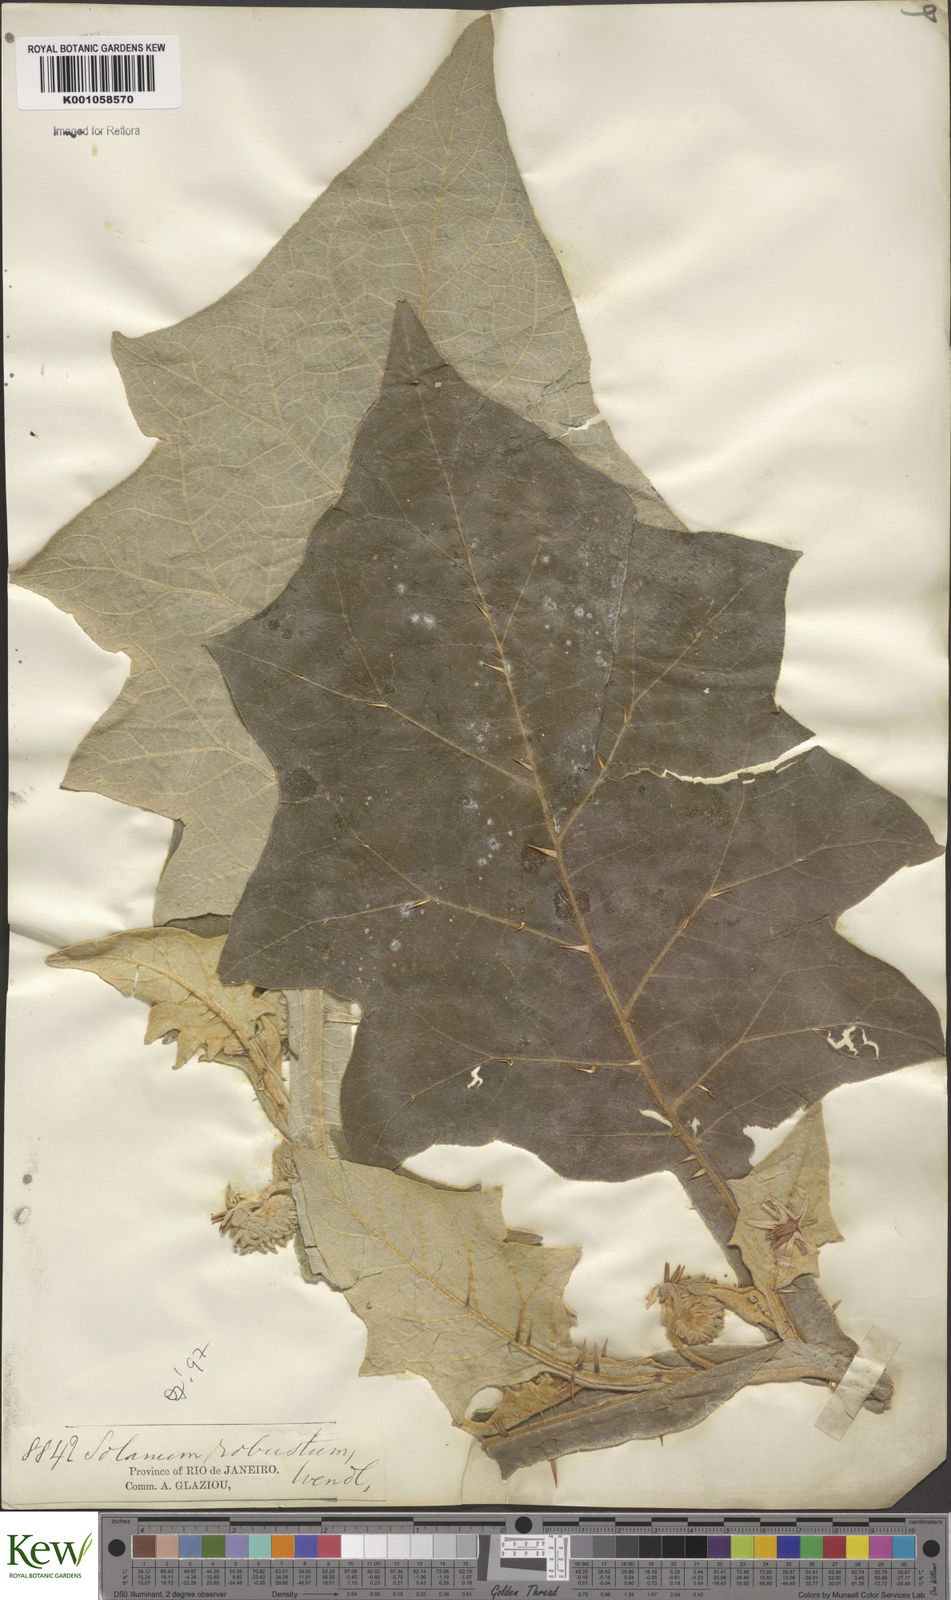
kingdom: Plantae
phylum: Tracheophyta
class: Magnoliopsida
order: Solanales
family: Solanaceae
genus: Solanum
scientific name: Solanum robustum
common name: Shrubby nightshade
